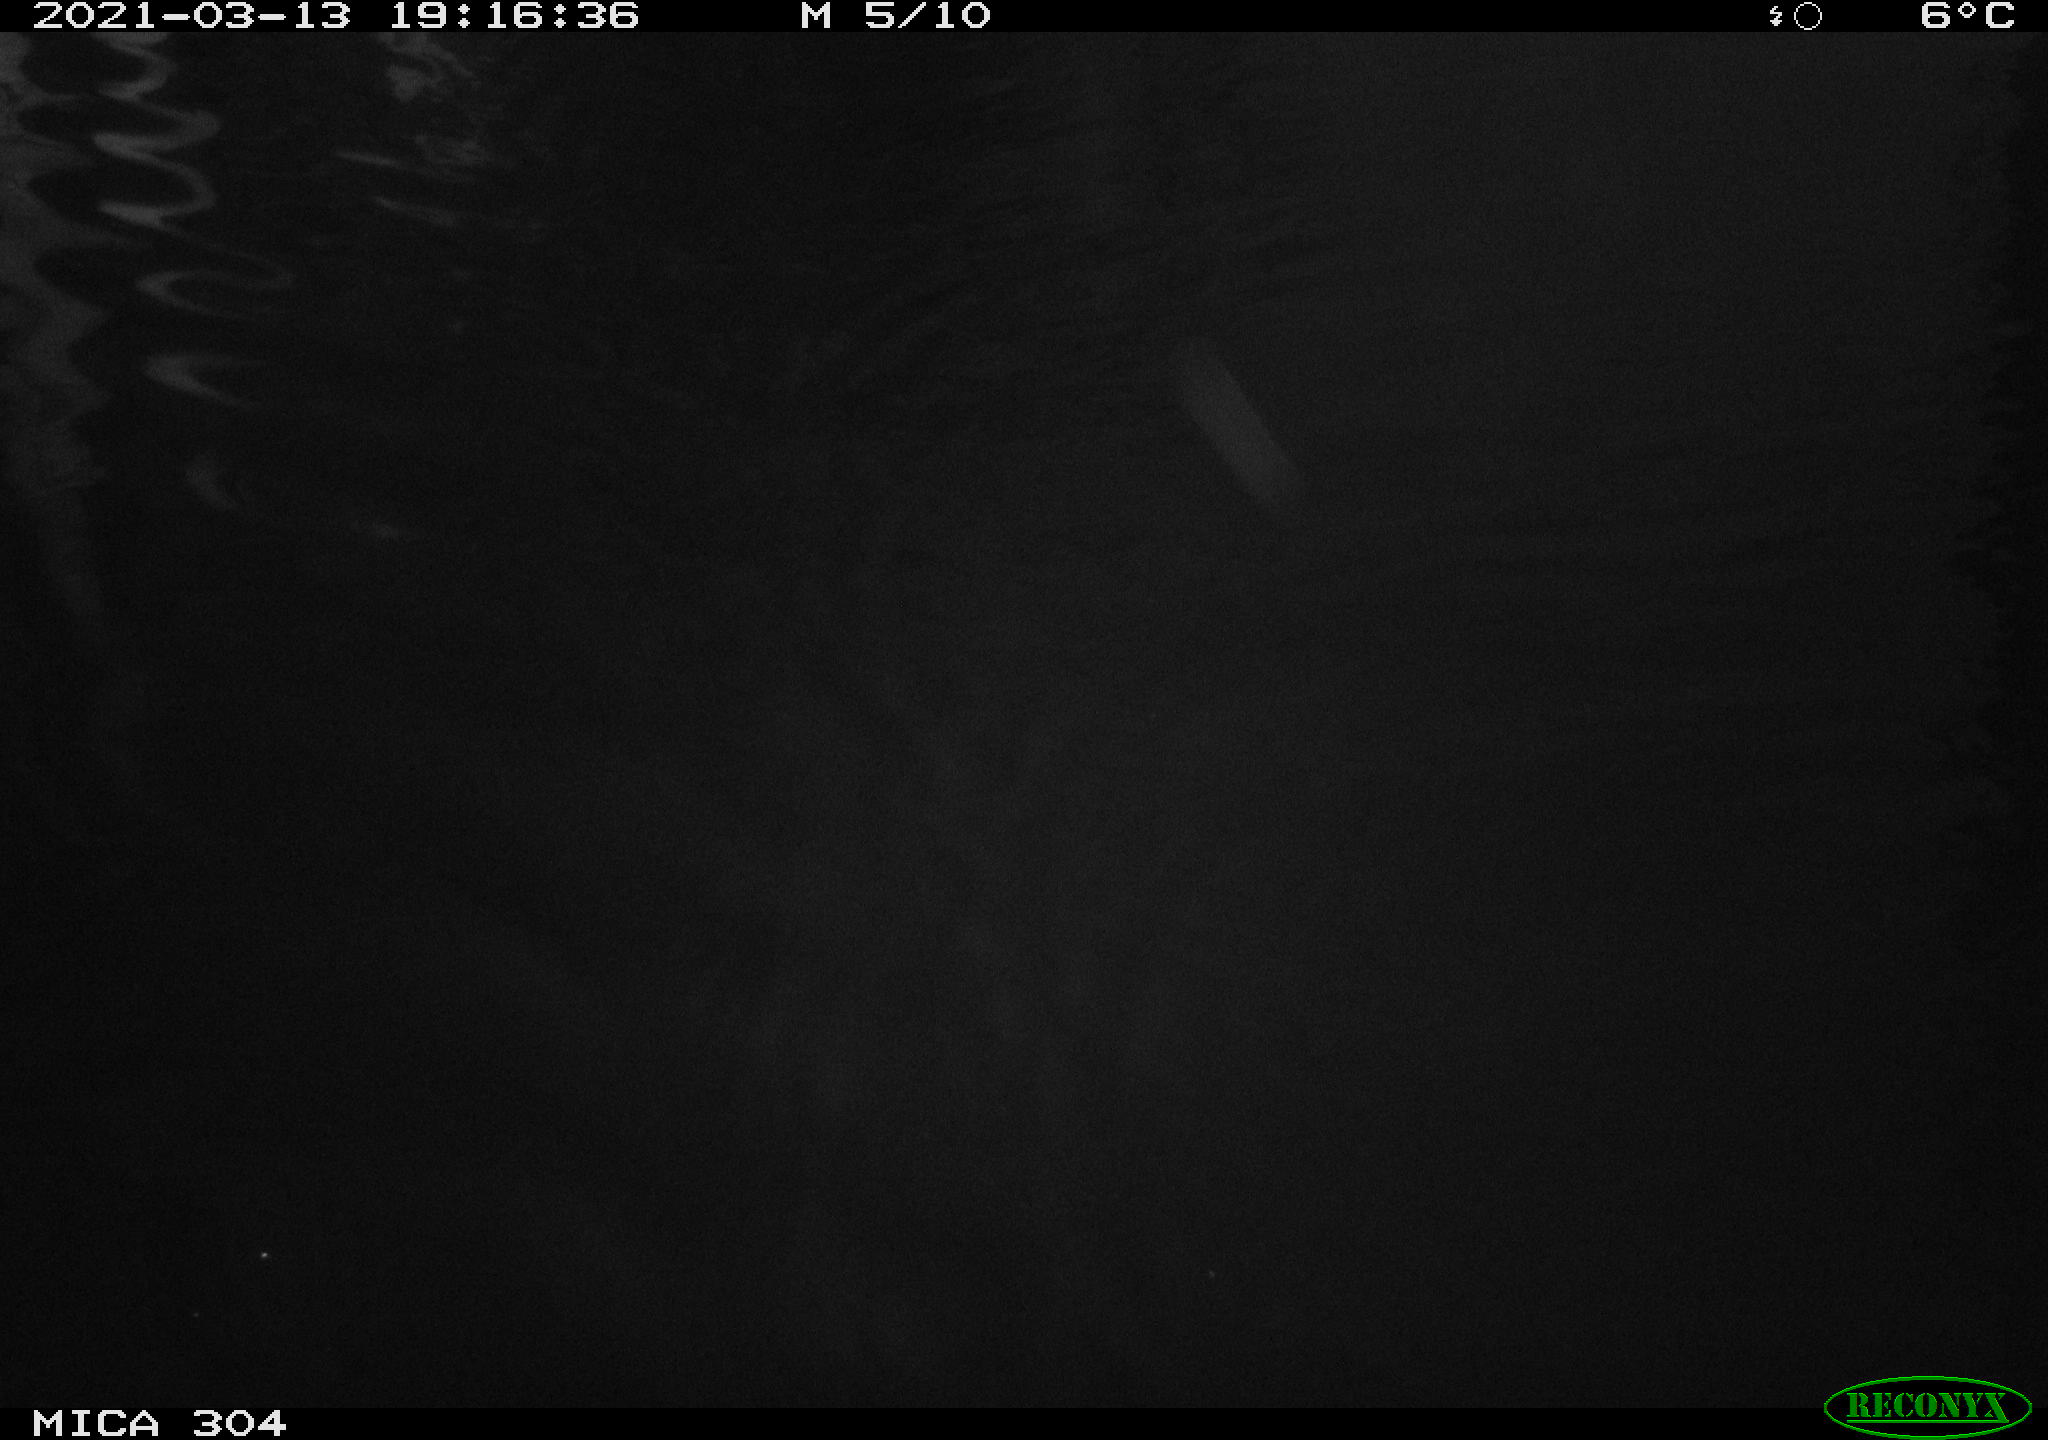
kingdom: Animalia
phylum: Chordata
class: Mammalia
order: Rodentia
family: Cricetidae
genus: Ondatra
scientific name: Ondatra zibethicus
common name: Muskrat
